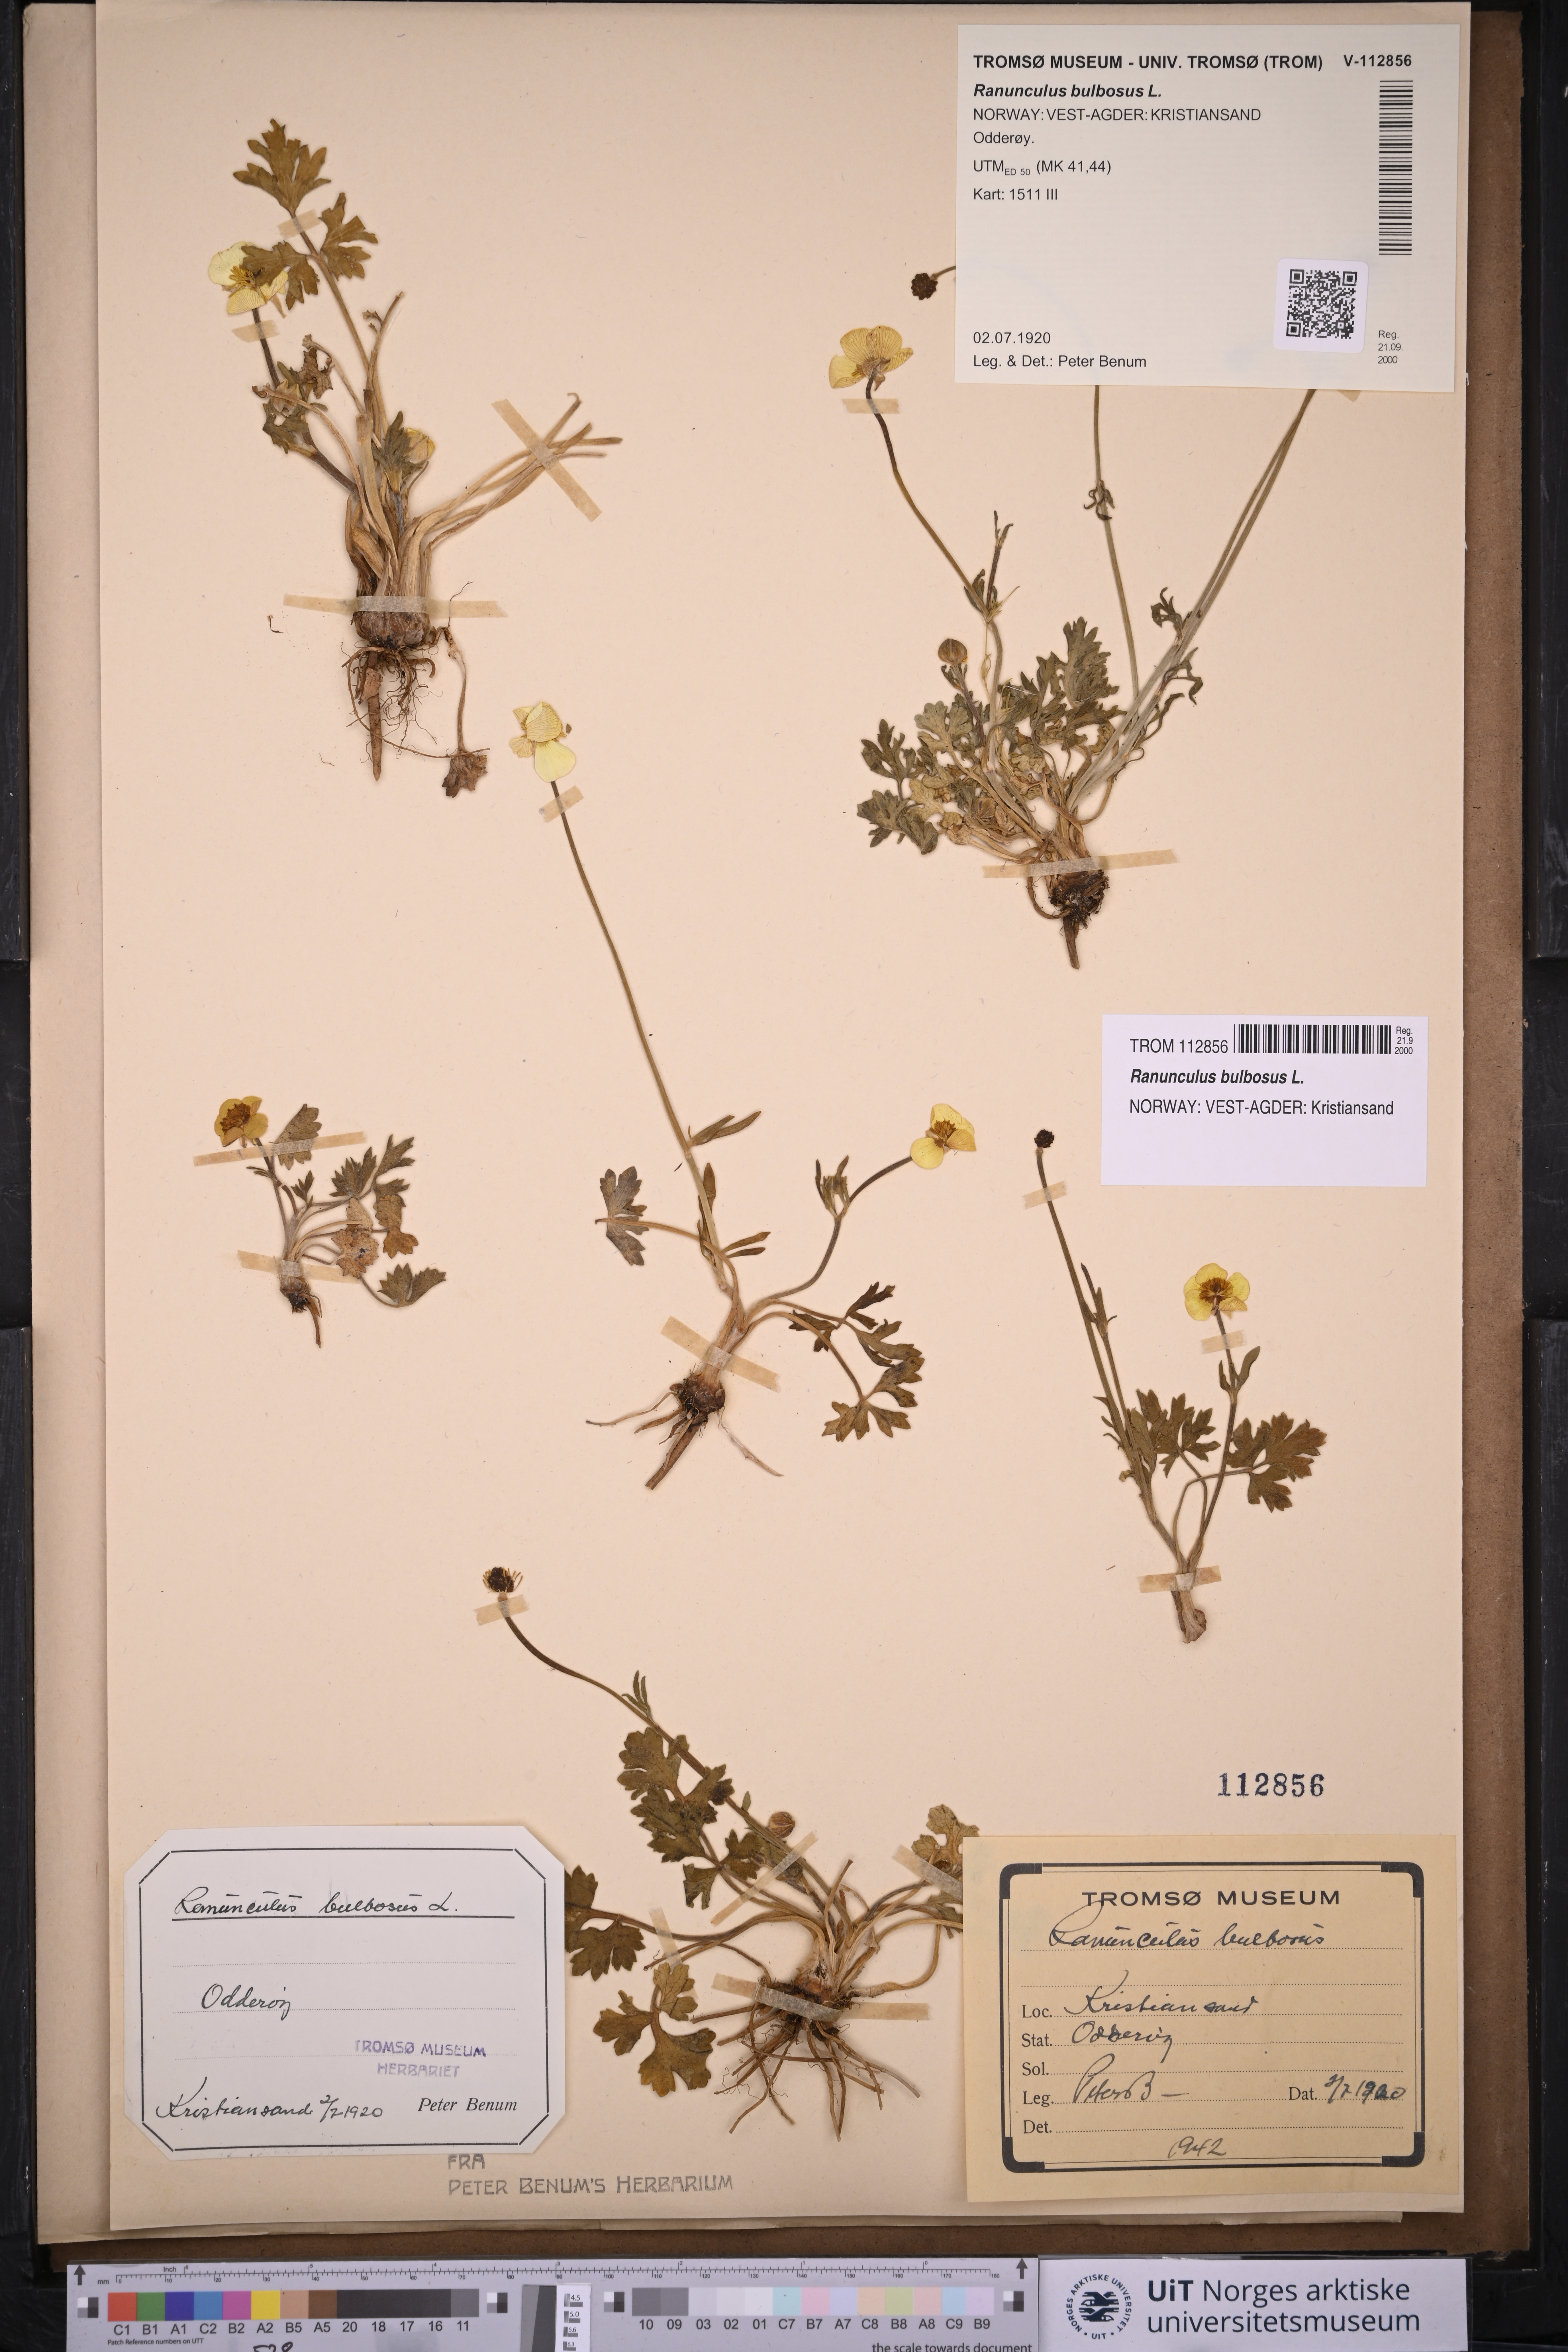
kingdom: Plantae
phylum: Tracheophyta
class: Magnoliopsida
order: Ranunculales
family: Ranunculaceae
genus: Ranunculus
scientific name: Ranunculus bulbosus
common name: Bulbous buttercup
